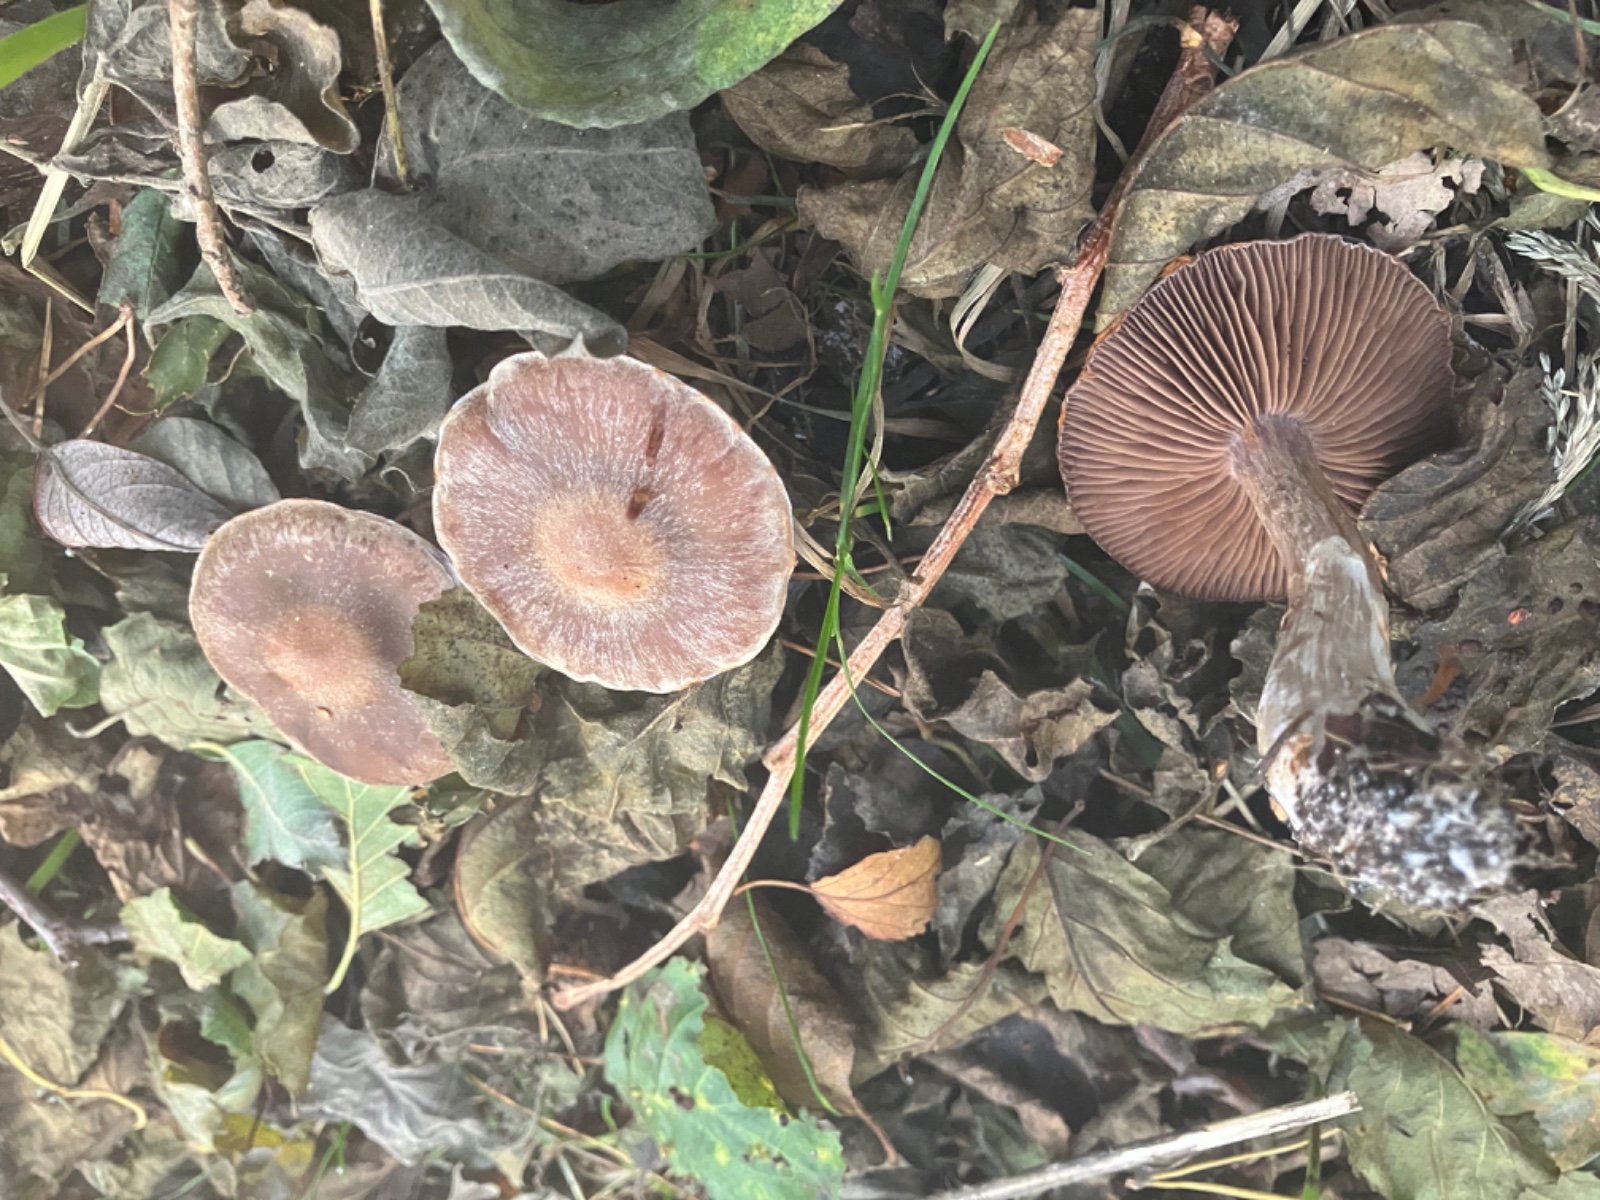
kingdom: Fungi
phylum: Basidiomycota
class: Agaricomycetes
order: Agaricales
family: Cortinariaceae
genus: Cortinarius
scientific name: Cortinarius
